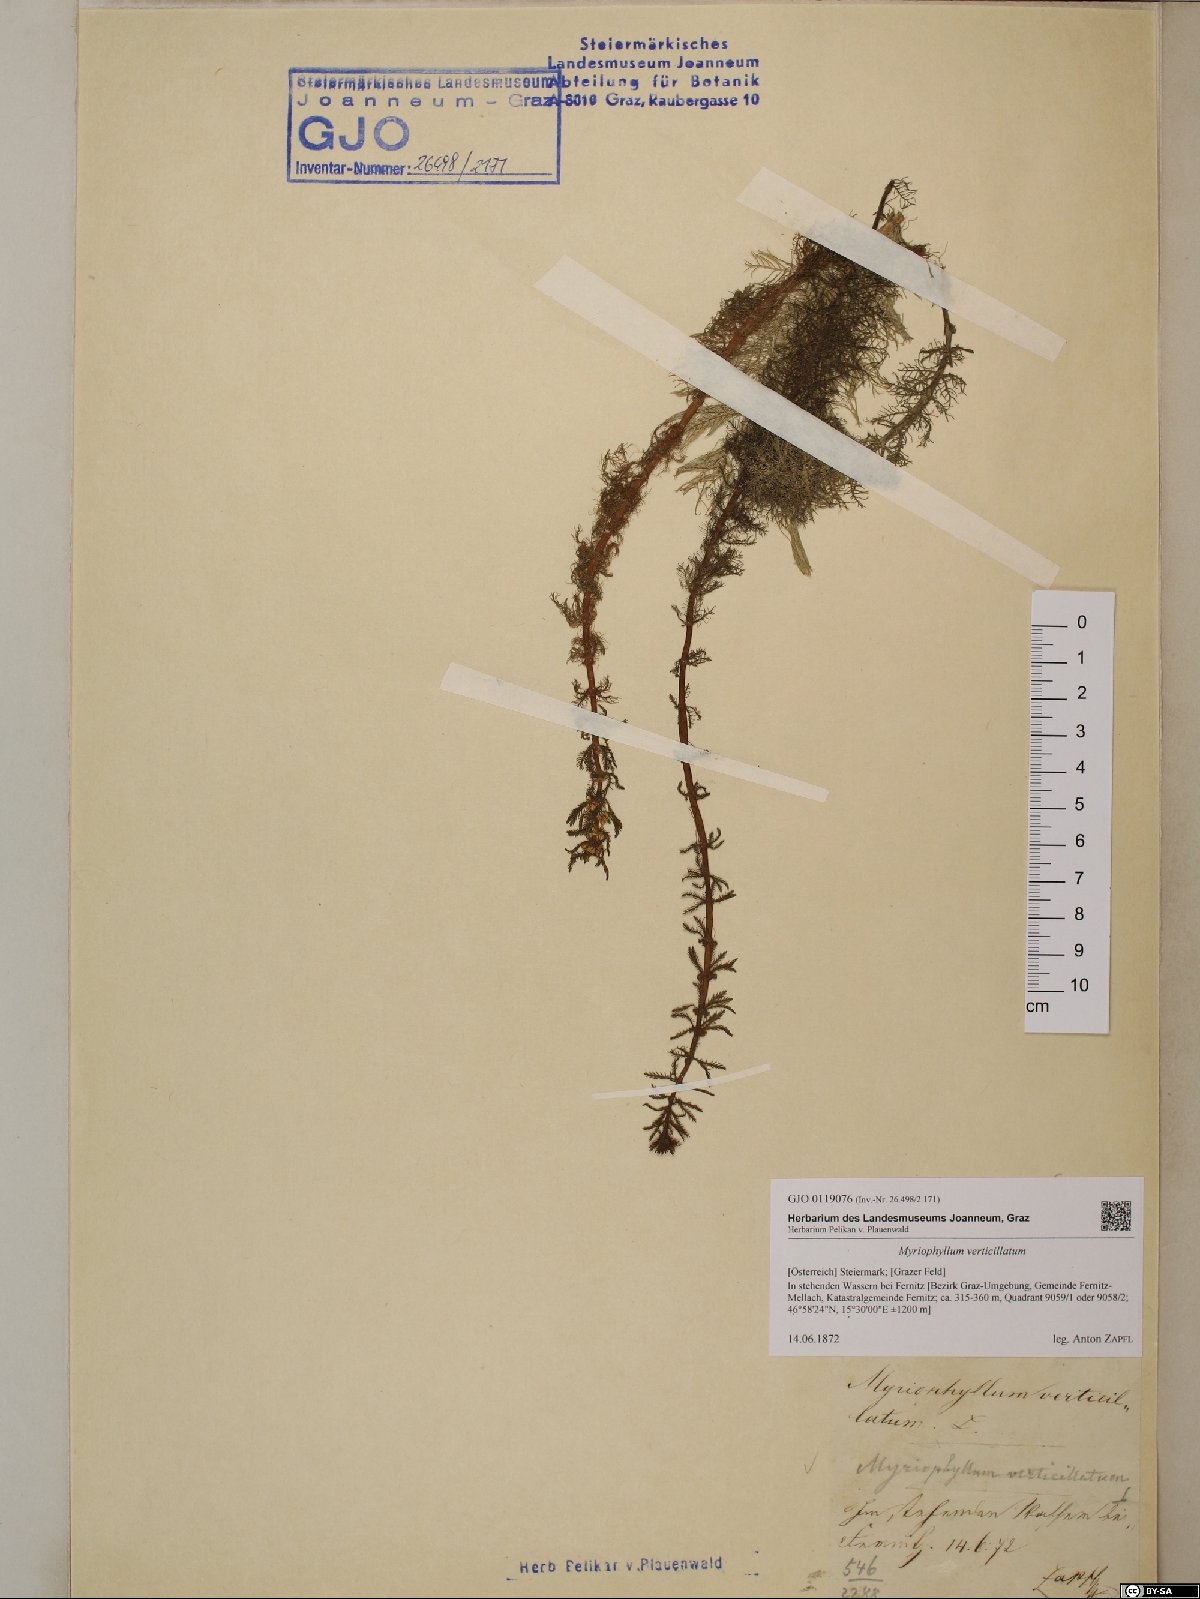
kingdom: Plantae
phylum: Tracheophyta
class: Magnoliopsida
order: Saxifragales
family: Haloragaceae
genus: Myriophyllum
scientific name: Myriophyllum verticillatum
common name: Whorled water-milfoil
